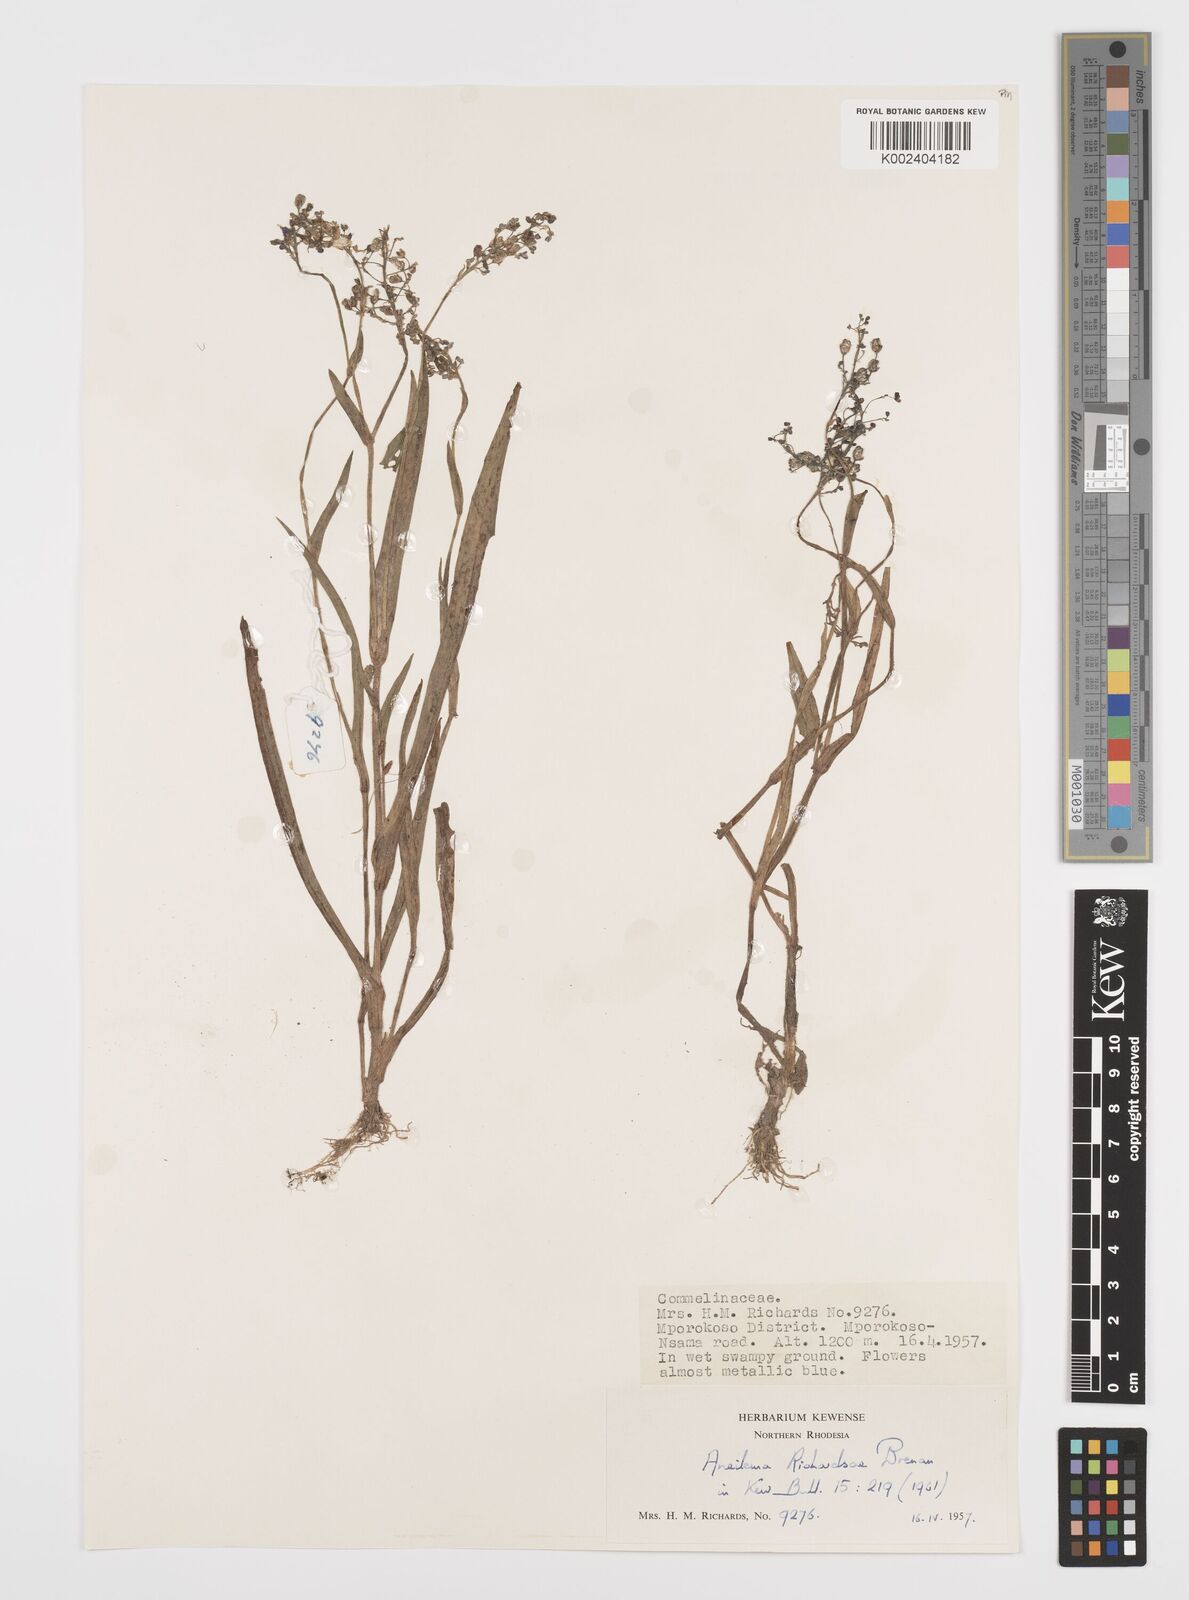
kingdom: Plantae
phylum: Tracheophyta
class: Liliopsida
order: Commelinales
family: Commelinaceae
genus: Aneilema
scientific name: Aneilema richardsiae
